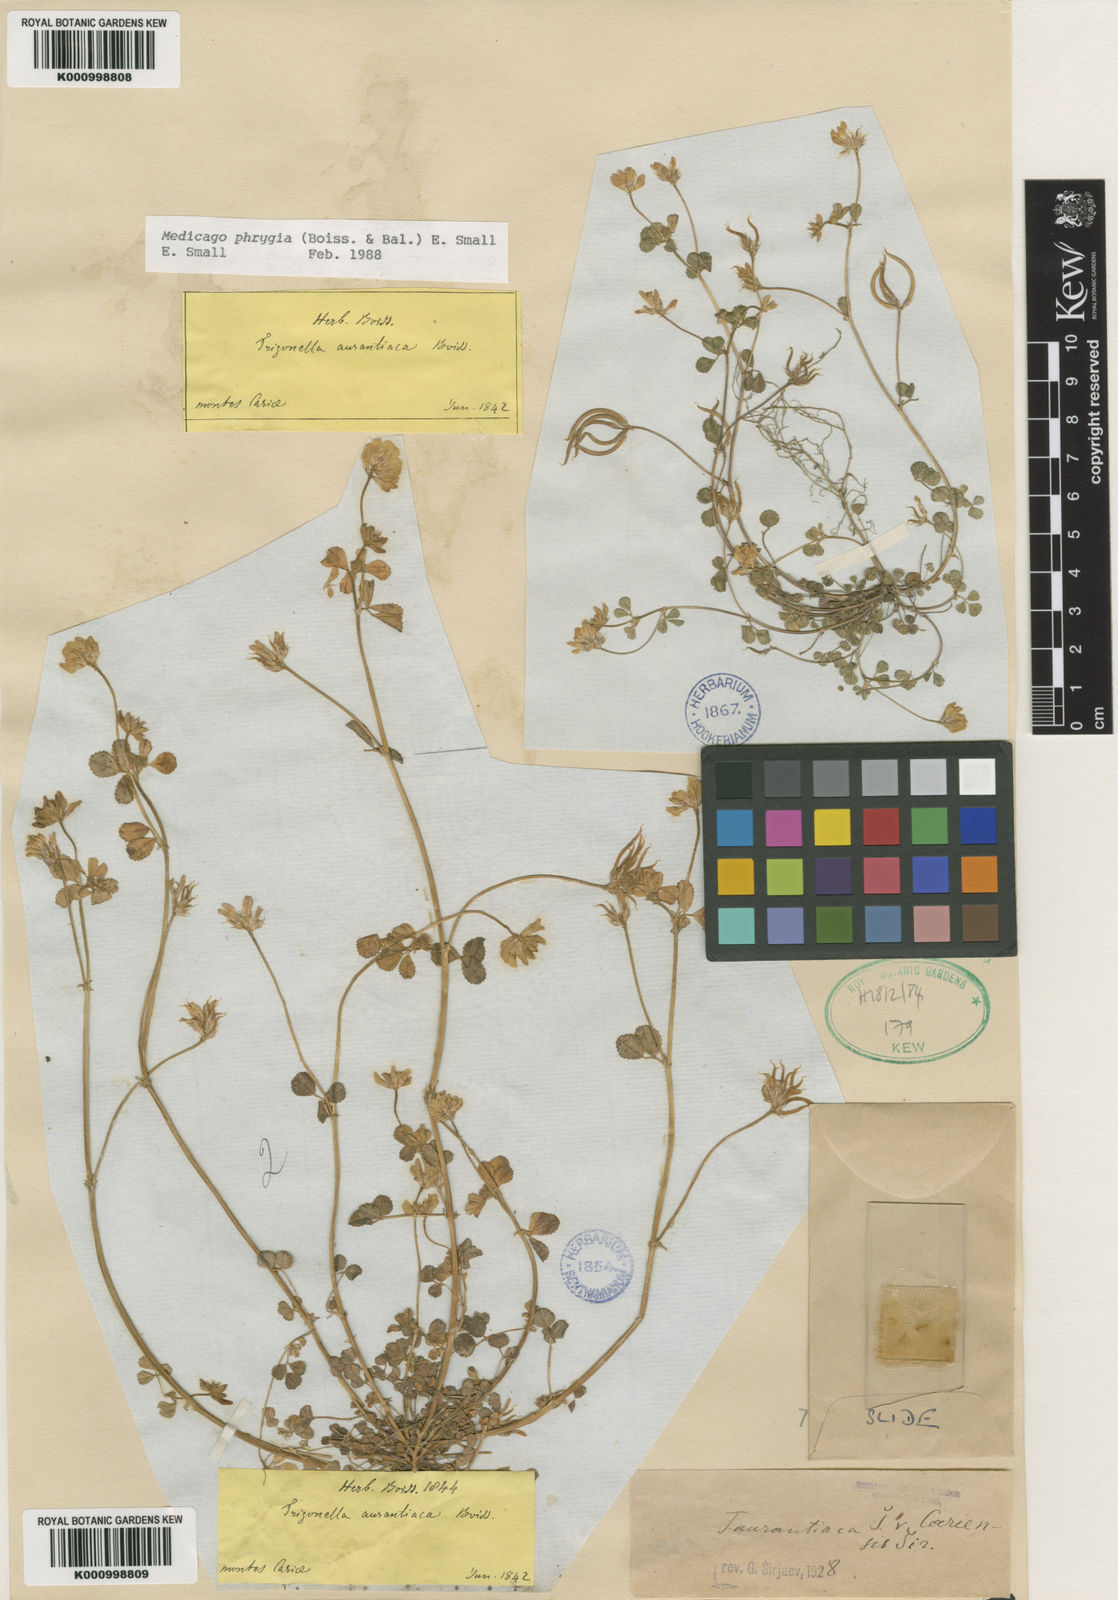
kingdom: Plantae
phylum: Tracheophyta
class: Magnoliopsida
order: Fabales
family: Fabaceae
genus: Medicago
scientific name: Medicago phrygia
